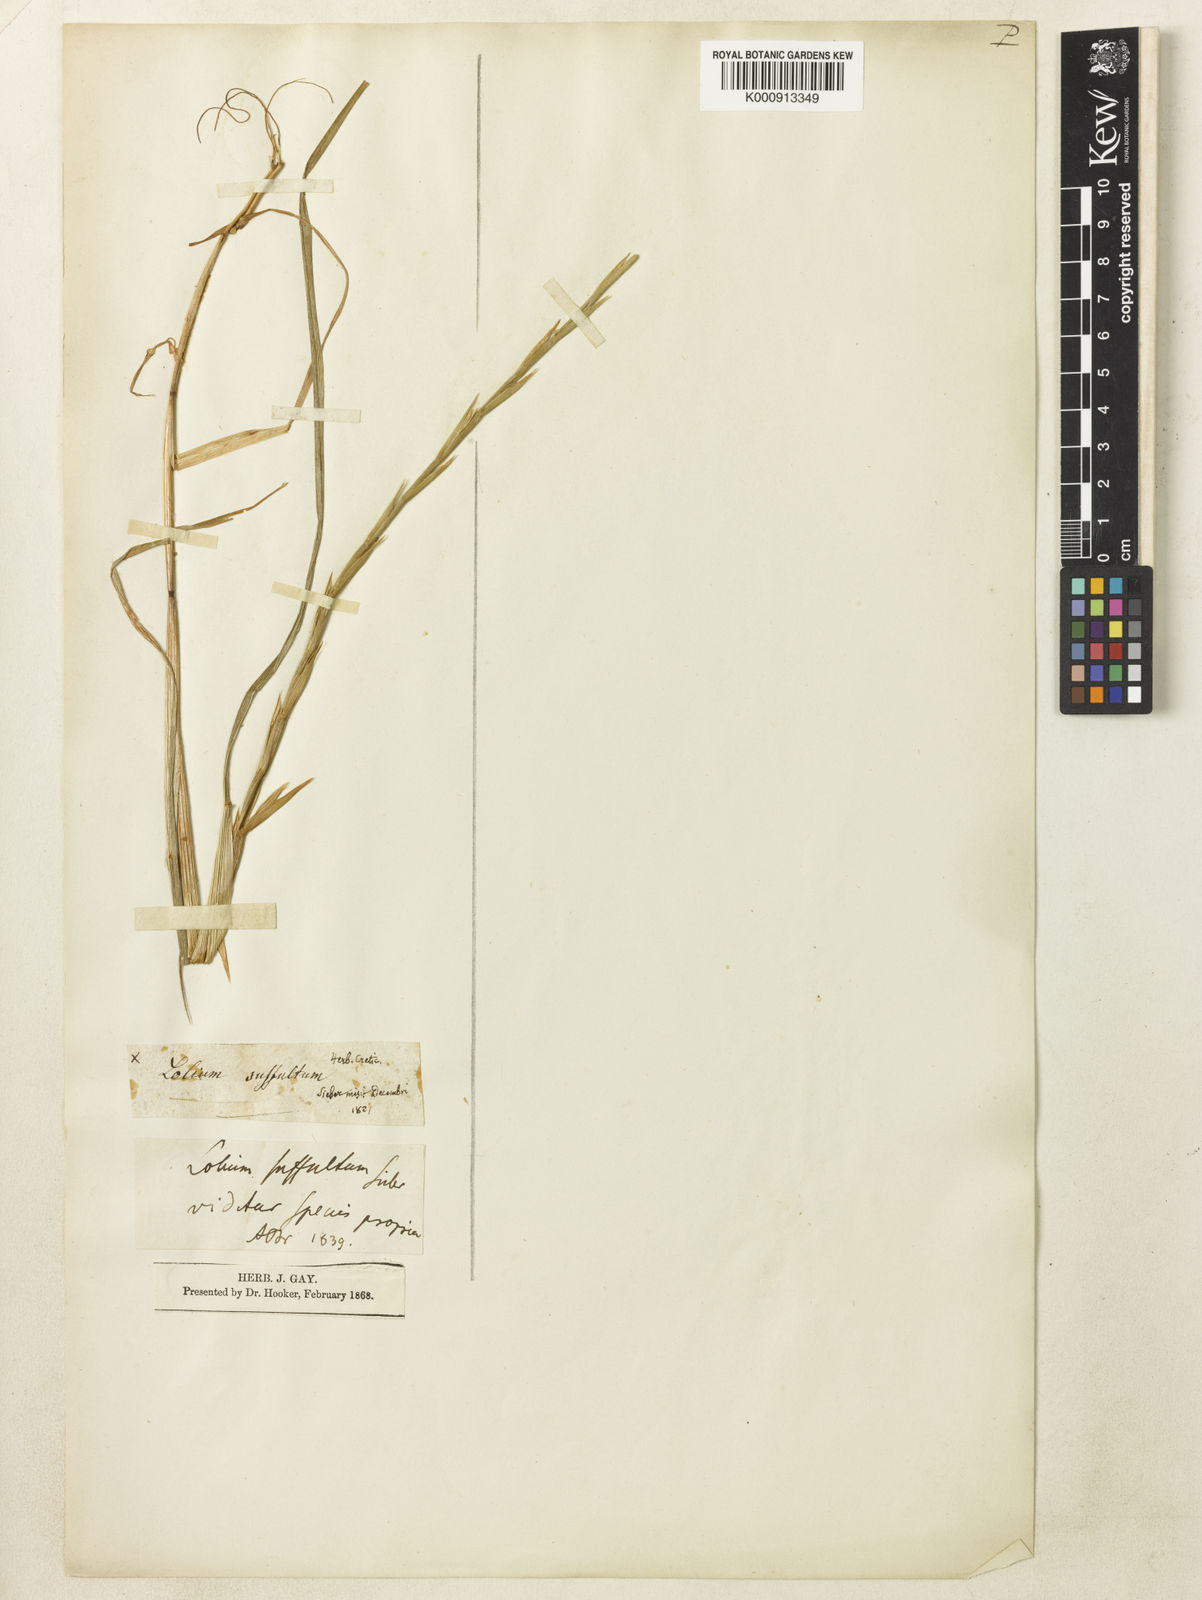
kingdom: Plantae
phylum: Tracheophyta
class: Liliopsida
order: Poales
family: Poaceae
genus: Lolium
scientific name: Lolium rigidum
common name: Wimmera ryegrass
